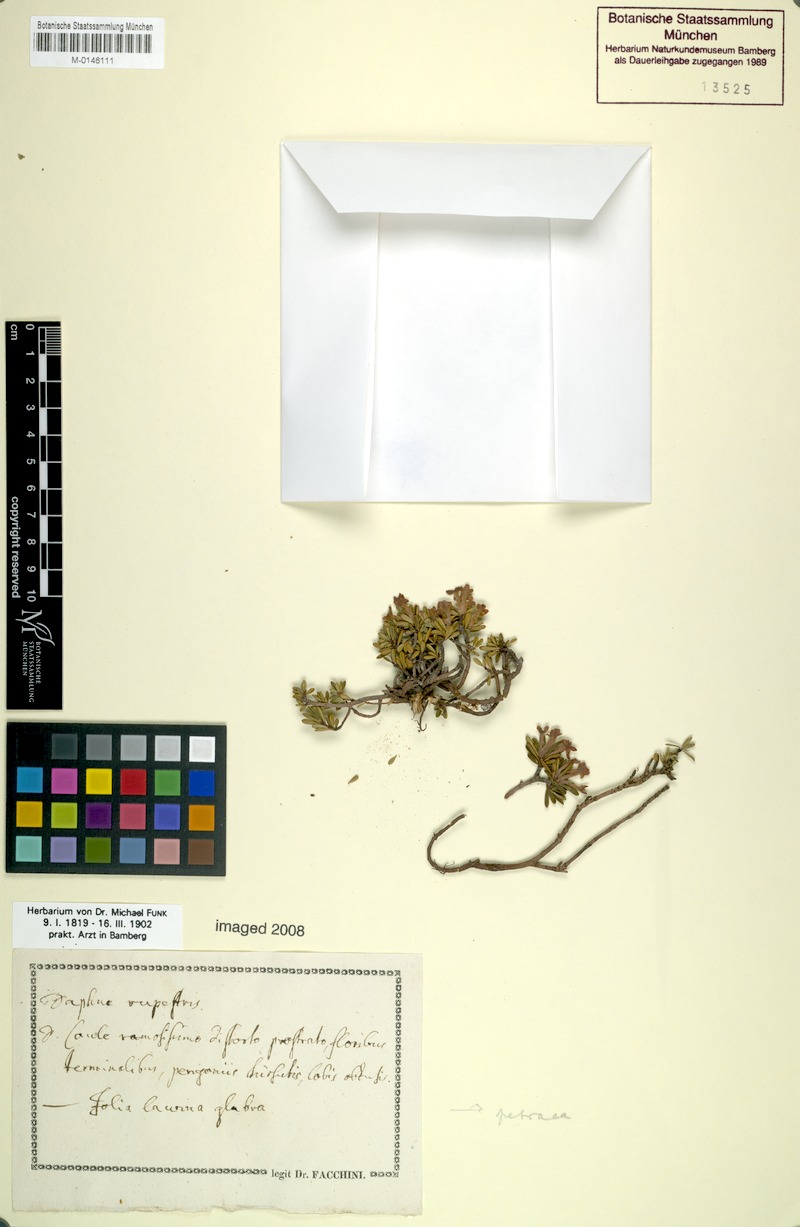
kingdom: Plantae
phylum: Tracheophyta
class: Magnoliopsida
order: Malvales
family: Thymelaeaceae
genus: Daphne
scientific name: Daphne petraea
